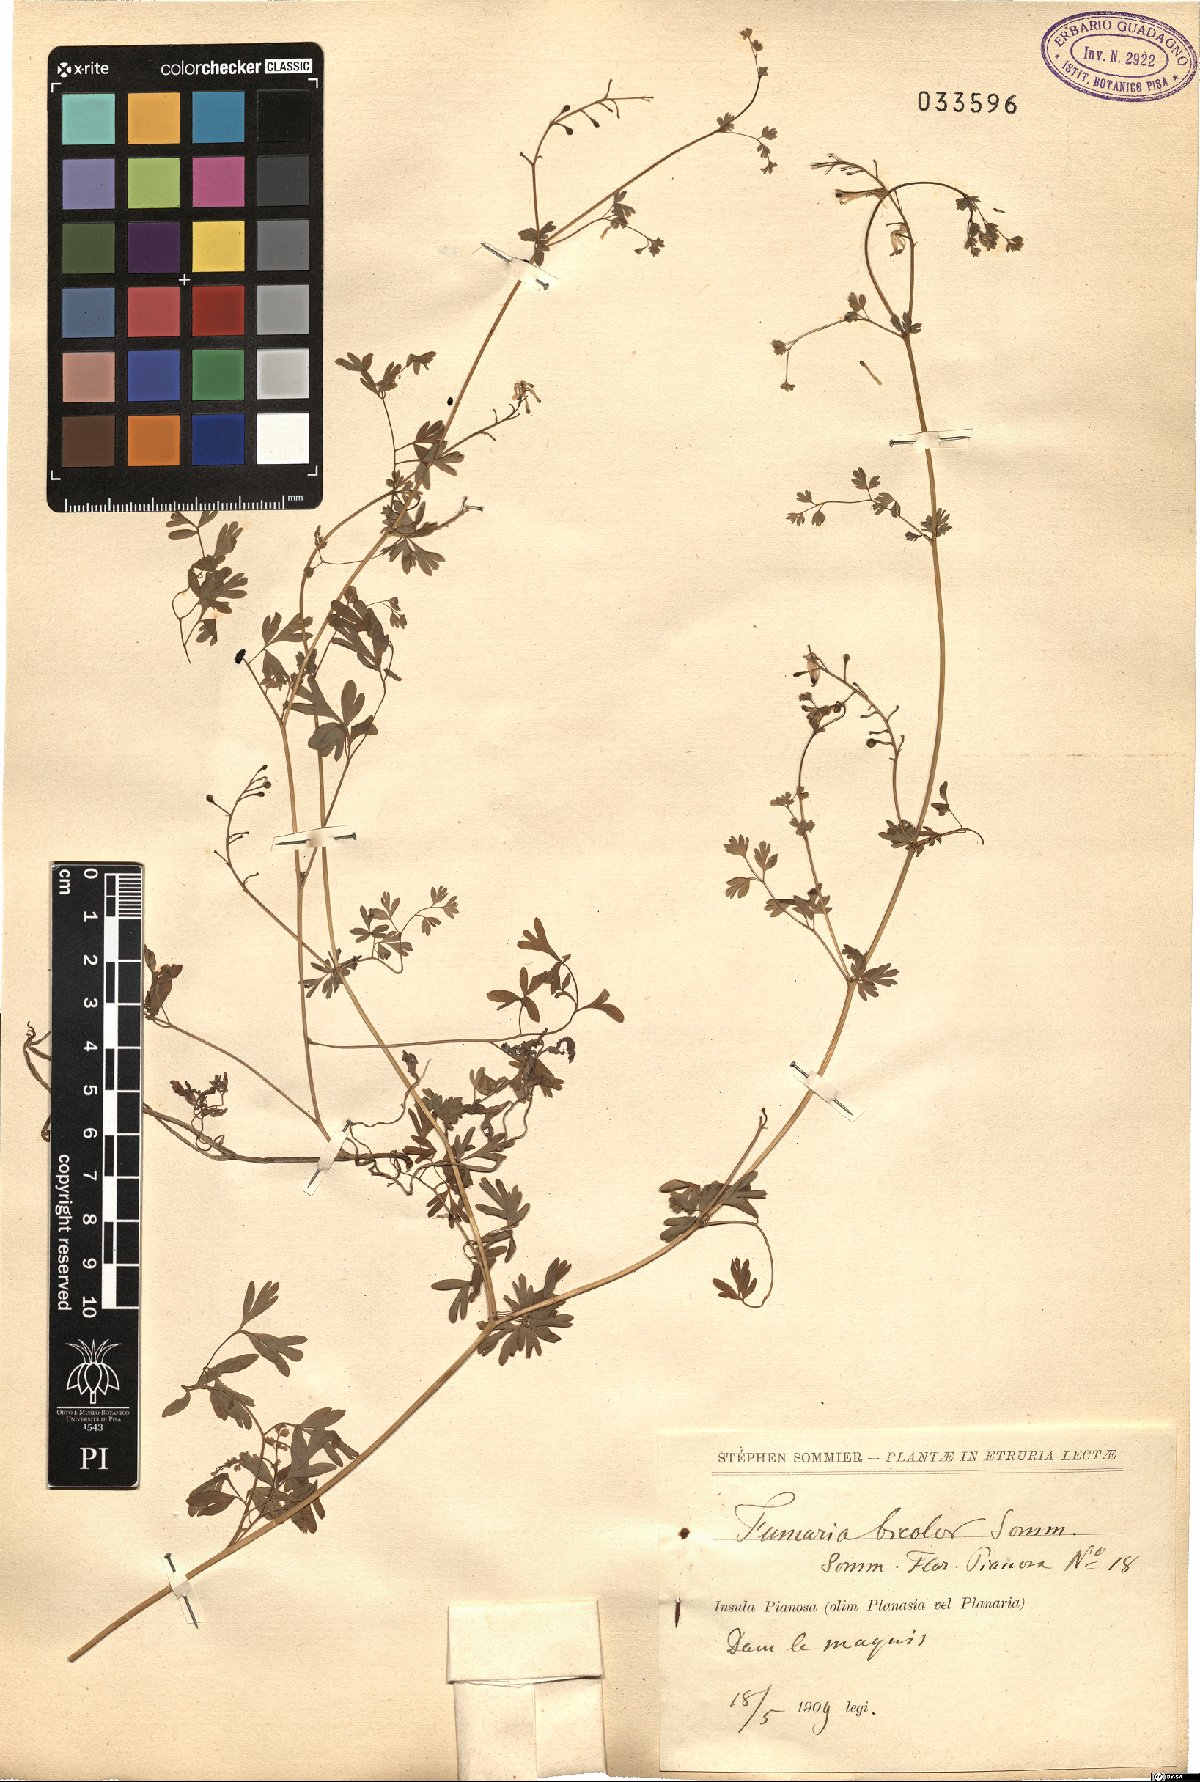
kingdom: Plantae
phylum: Tracheophyta
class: Magnoliopsida
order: Ranunculales
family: Papaveraceae
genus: Fumaria
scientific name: Fumaria bicolor
